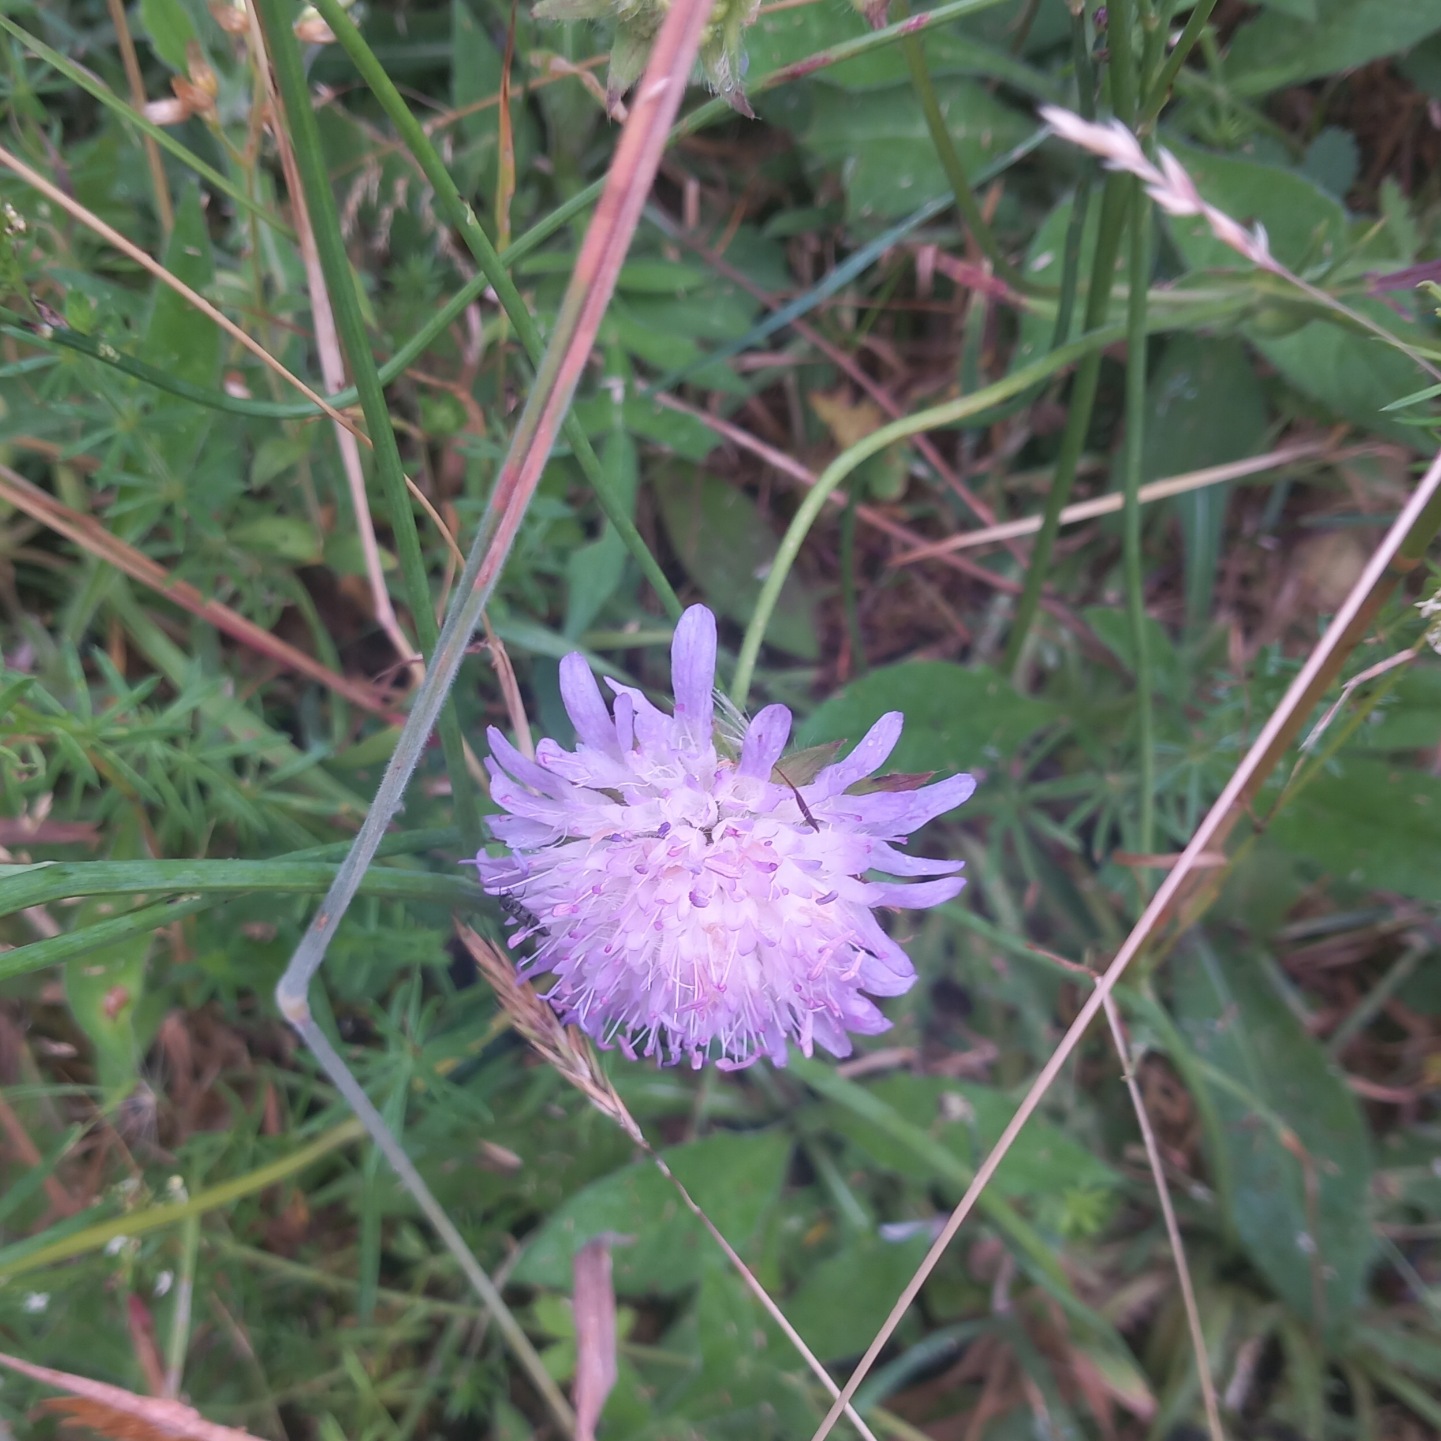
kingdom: Plantae
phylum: Tracheophyta
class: Magnoliopsida
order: Dipsacales
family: Caprifoliaceae
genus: Knautia
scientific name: Knautia arvensis
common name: Blåhat
